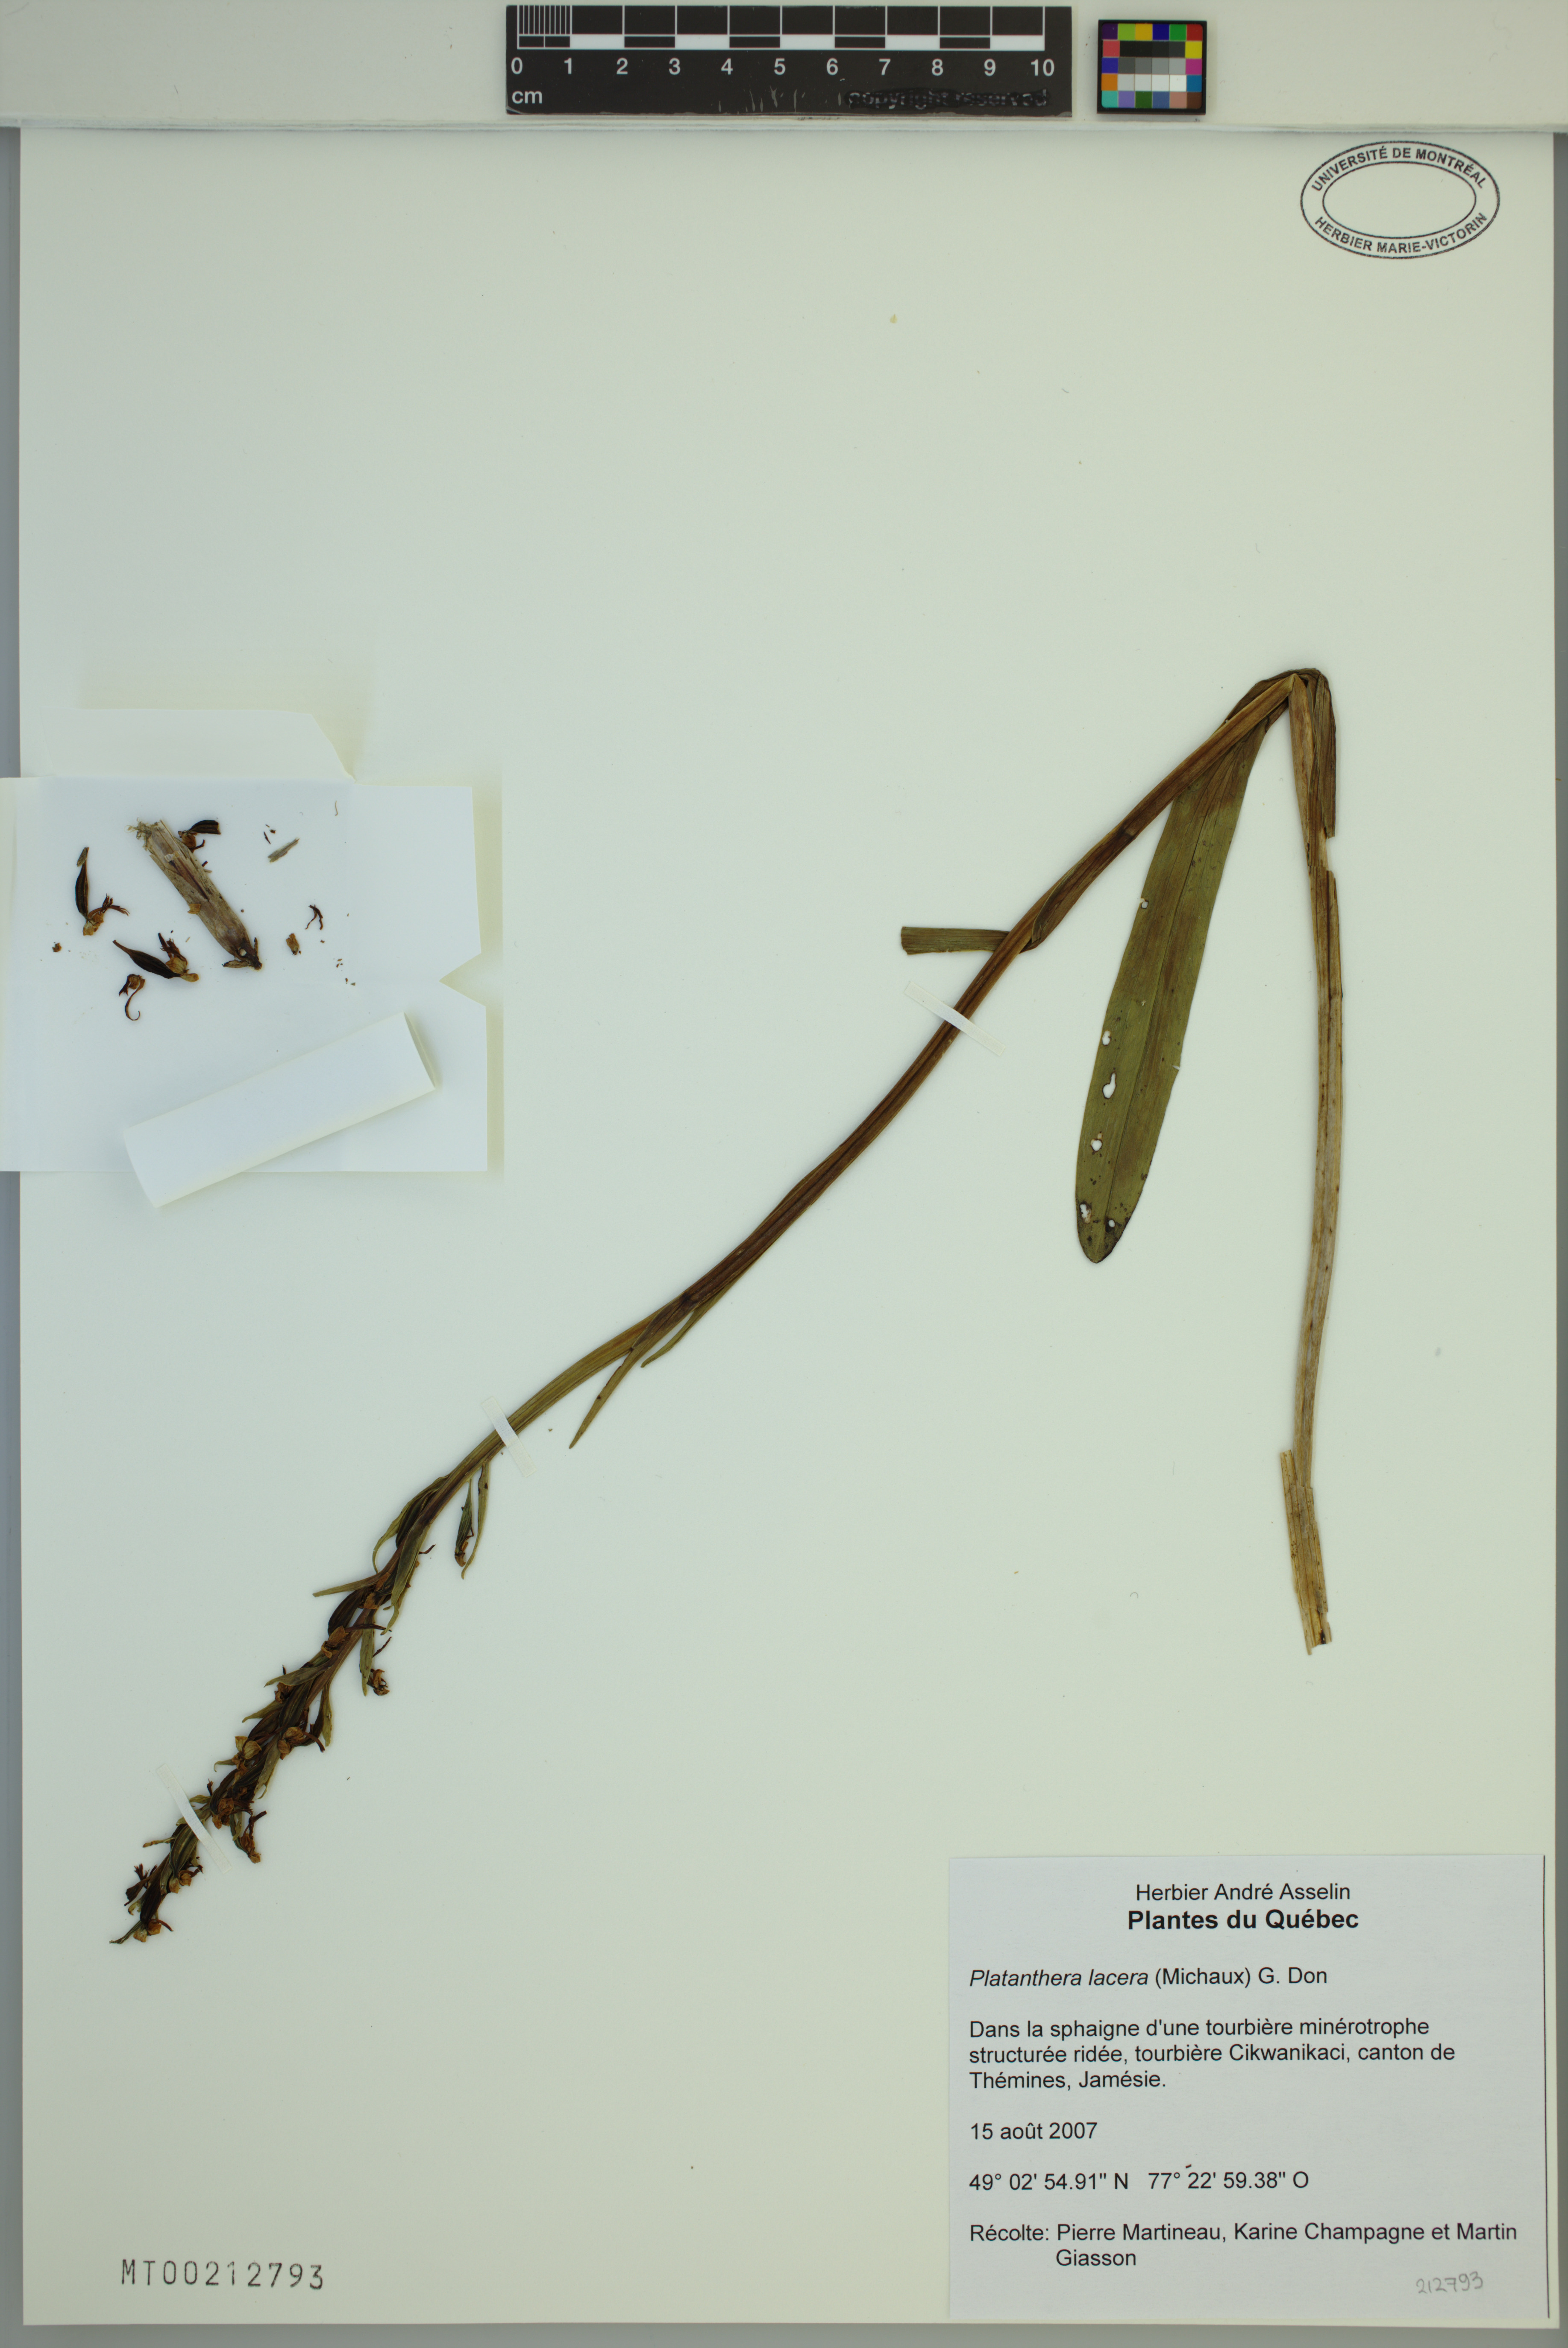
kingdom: Plantae
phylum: Tracheophyta
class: Liliopsida
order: Asparagales
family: Orchidaceae
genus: Platanthera
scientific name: Platanthera lacera
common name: Green fringed orchid
